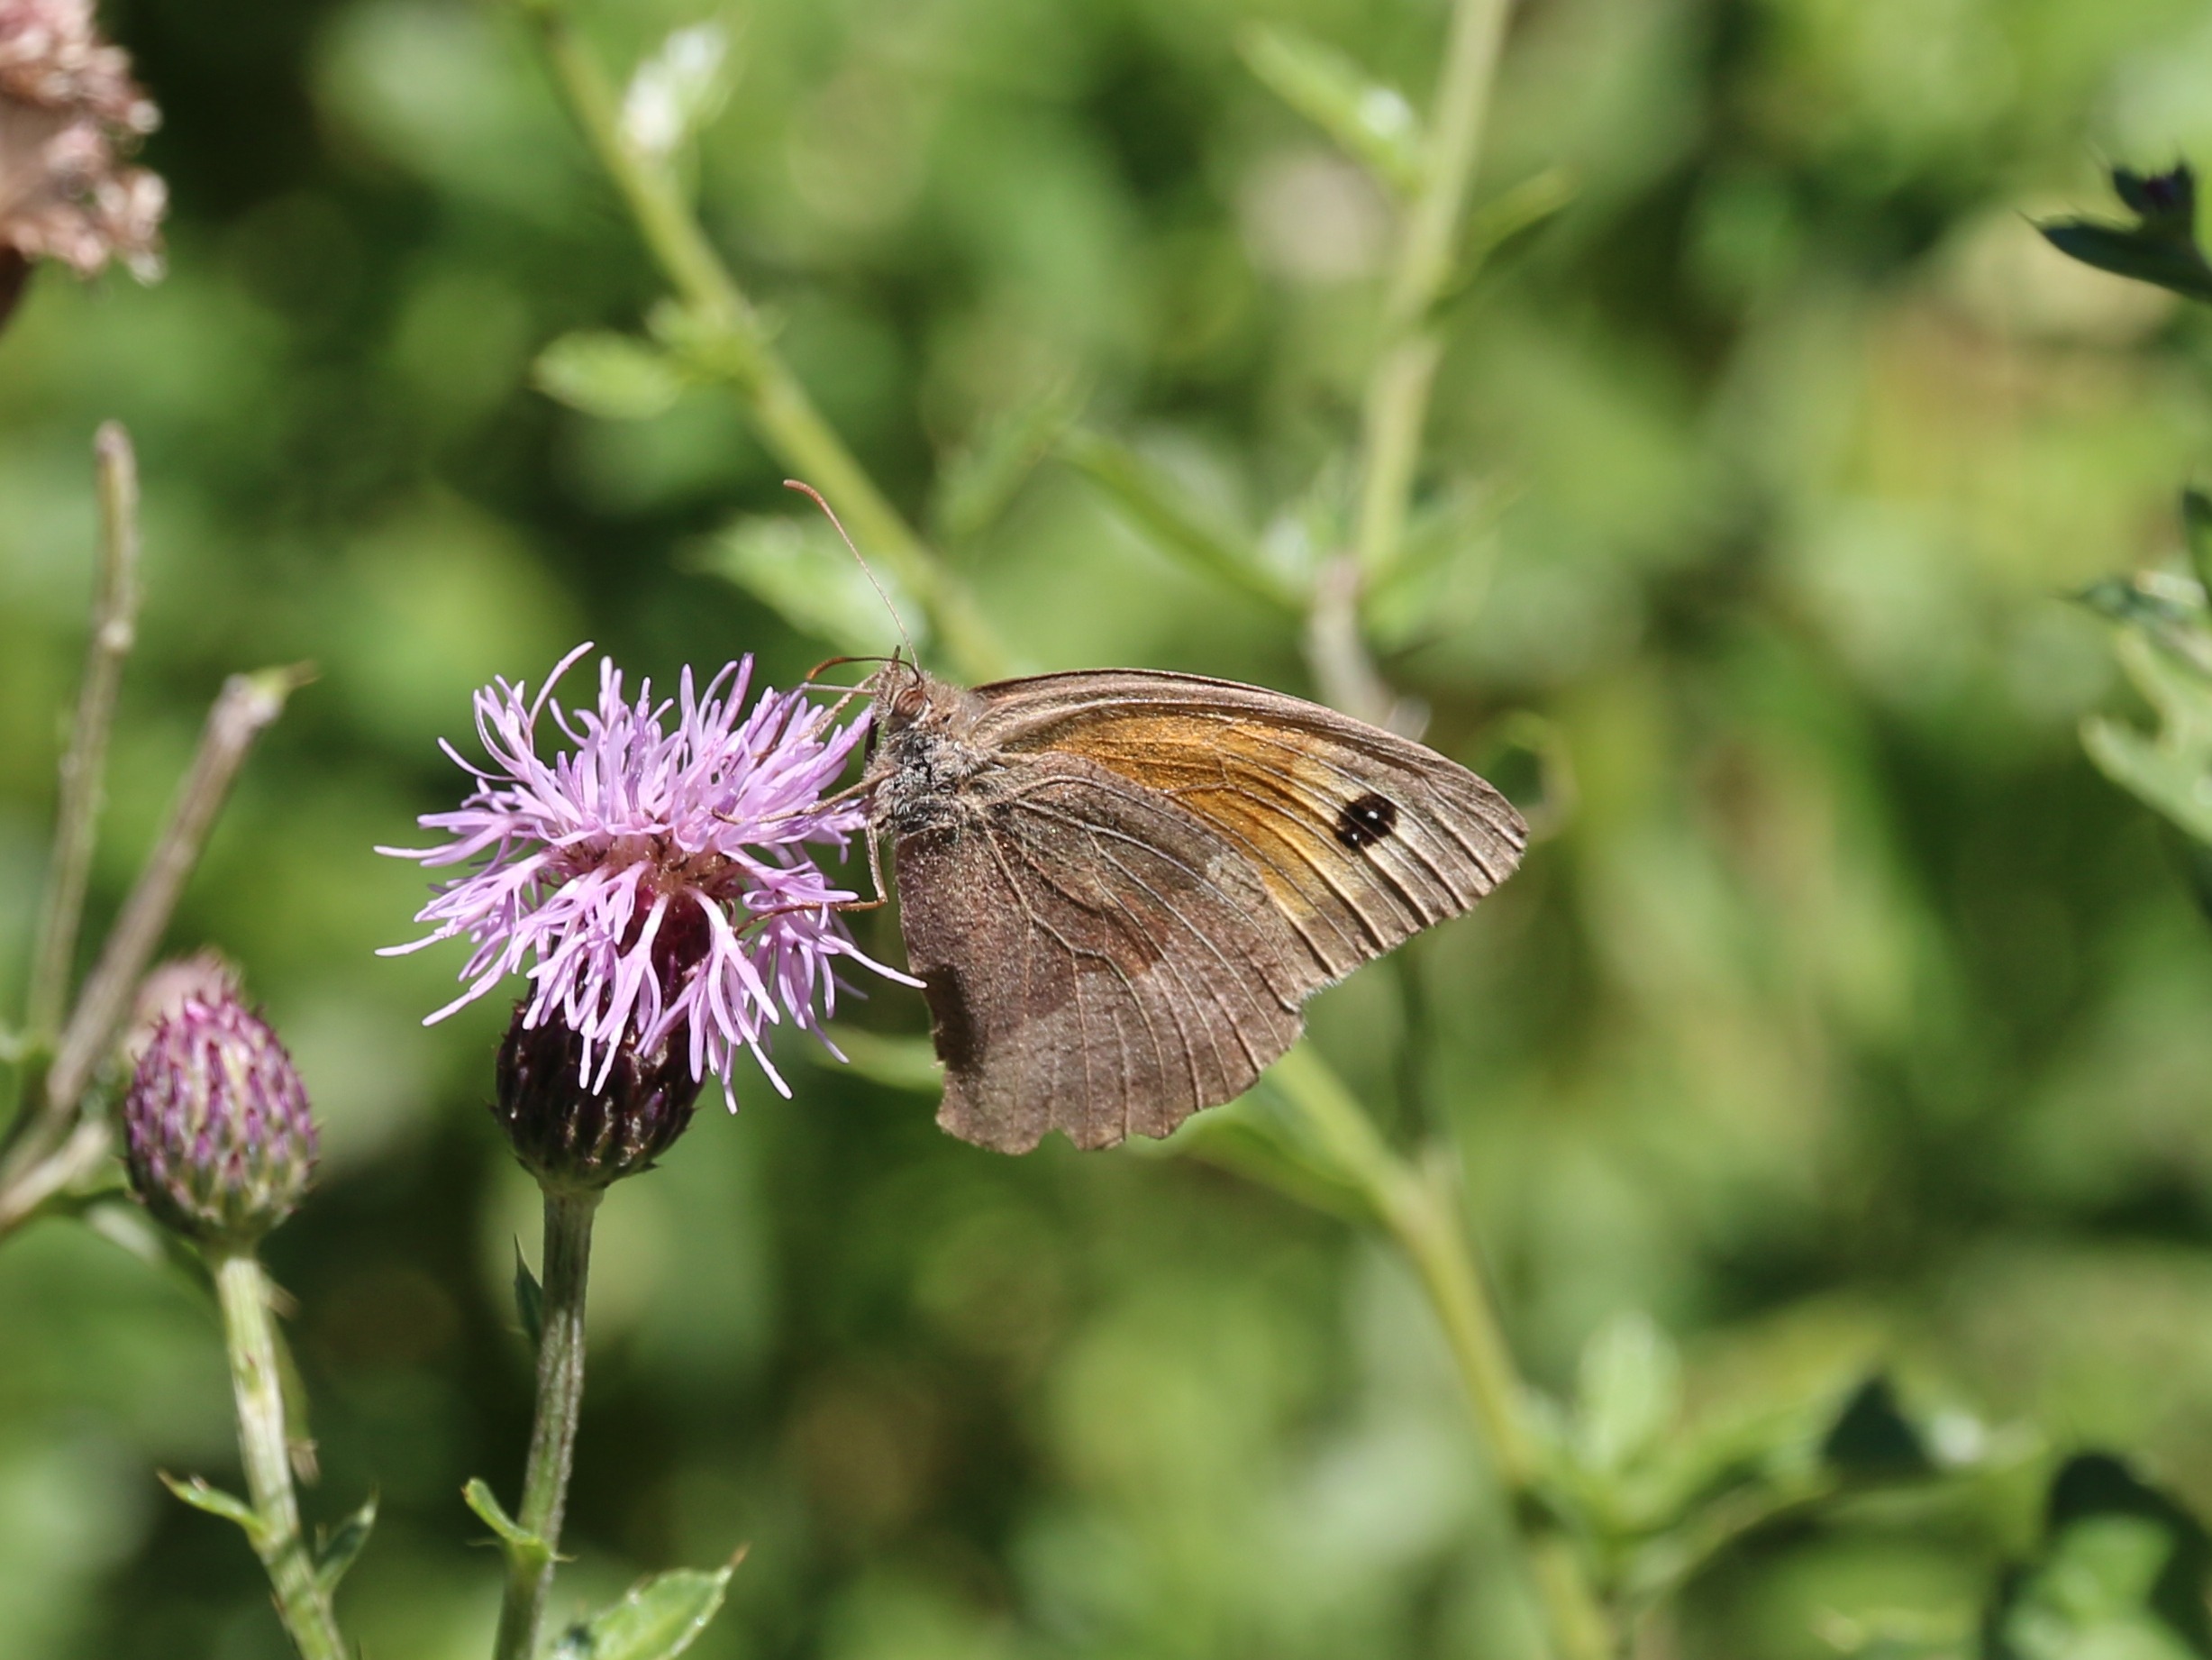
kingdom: Animalia
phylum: Arthropoda
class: Insecta
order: Lepidoptera
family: Nymphalidae
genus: Maniola
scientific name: Maniola jurtina
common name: Græsrandøje
